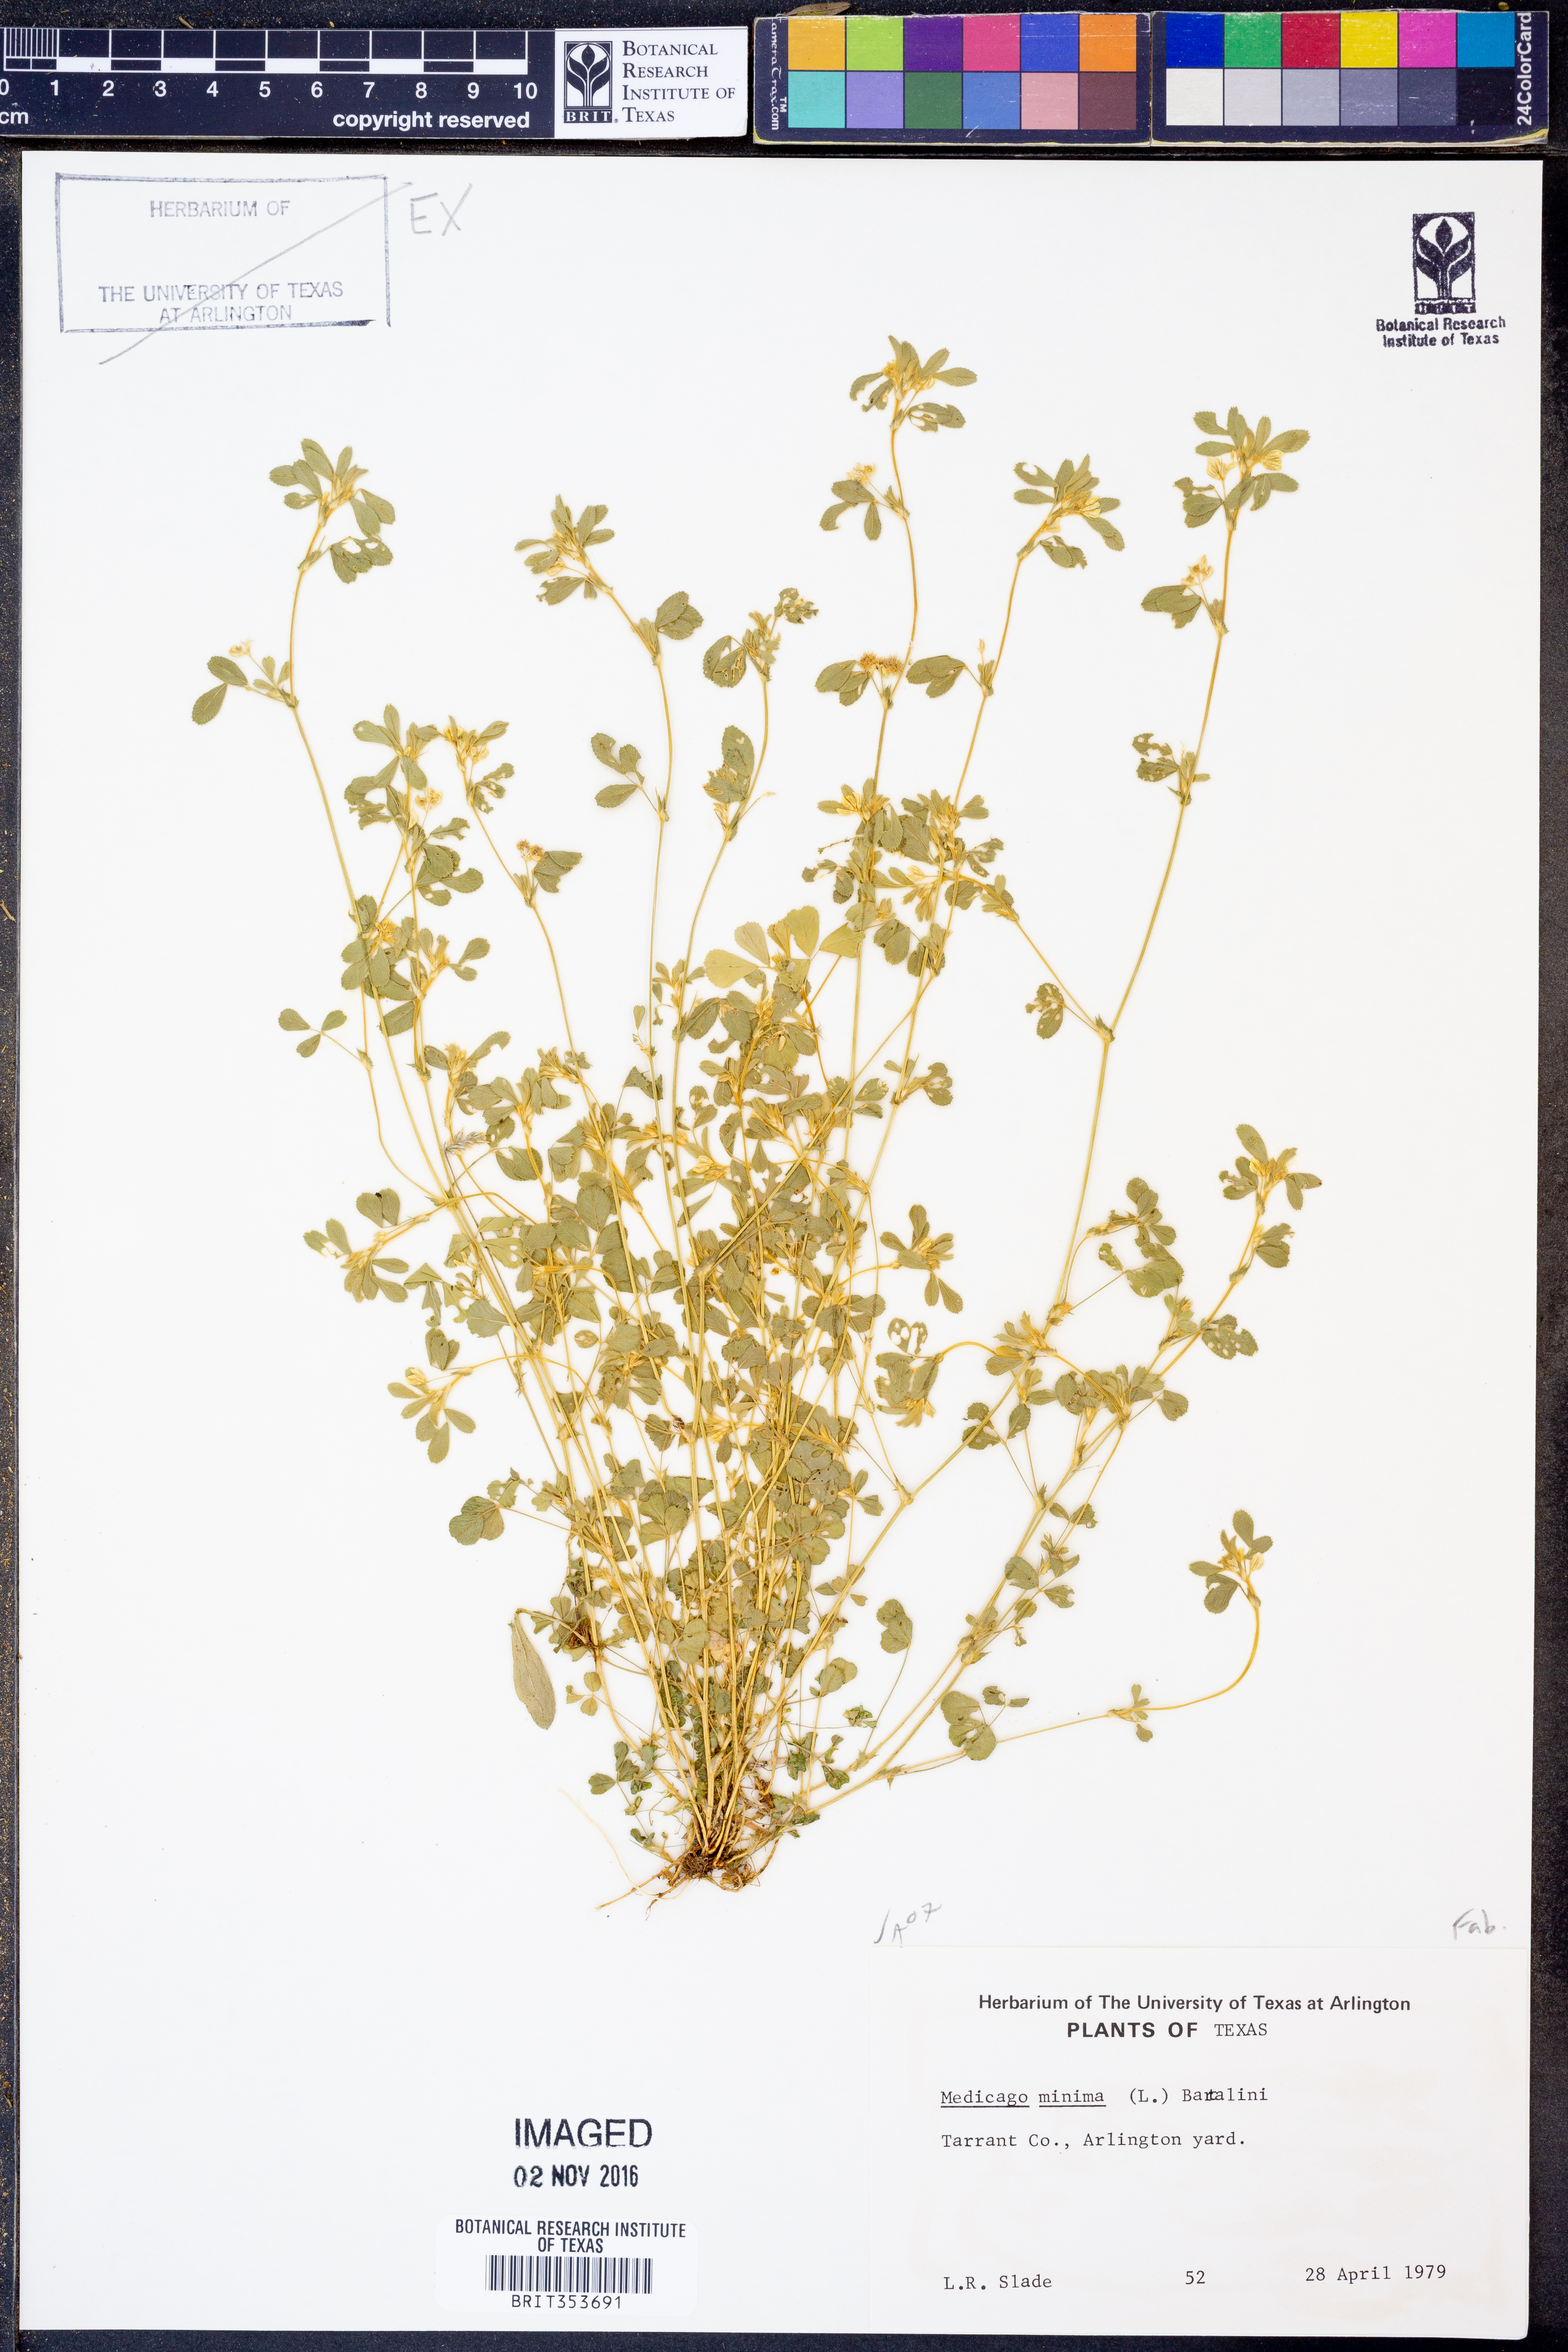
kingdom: Plantae
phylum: Tracheophyta
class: Magnoliopsida
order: Fabales
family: Fabaceae
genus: Medicago
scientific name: Medicago minima
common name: Little bur-clover
